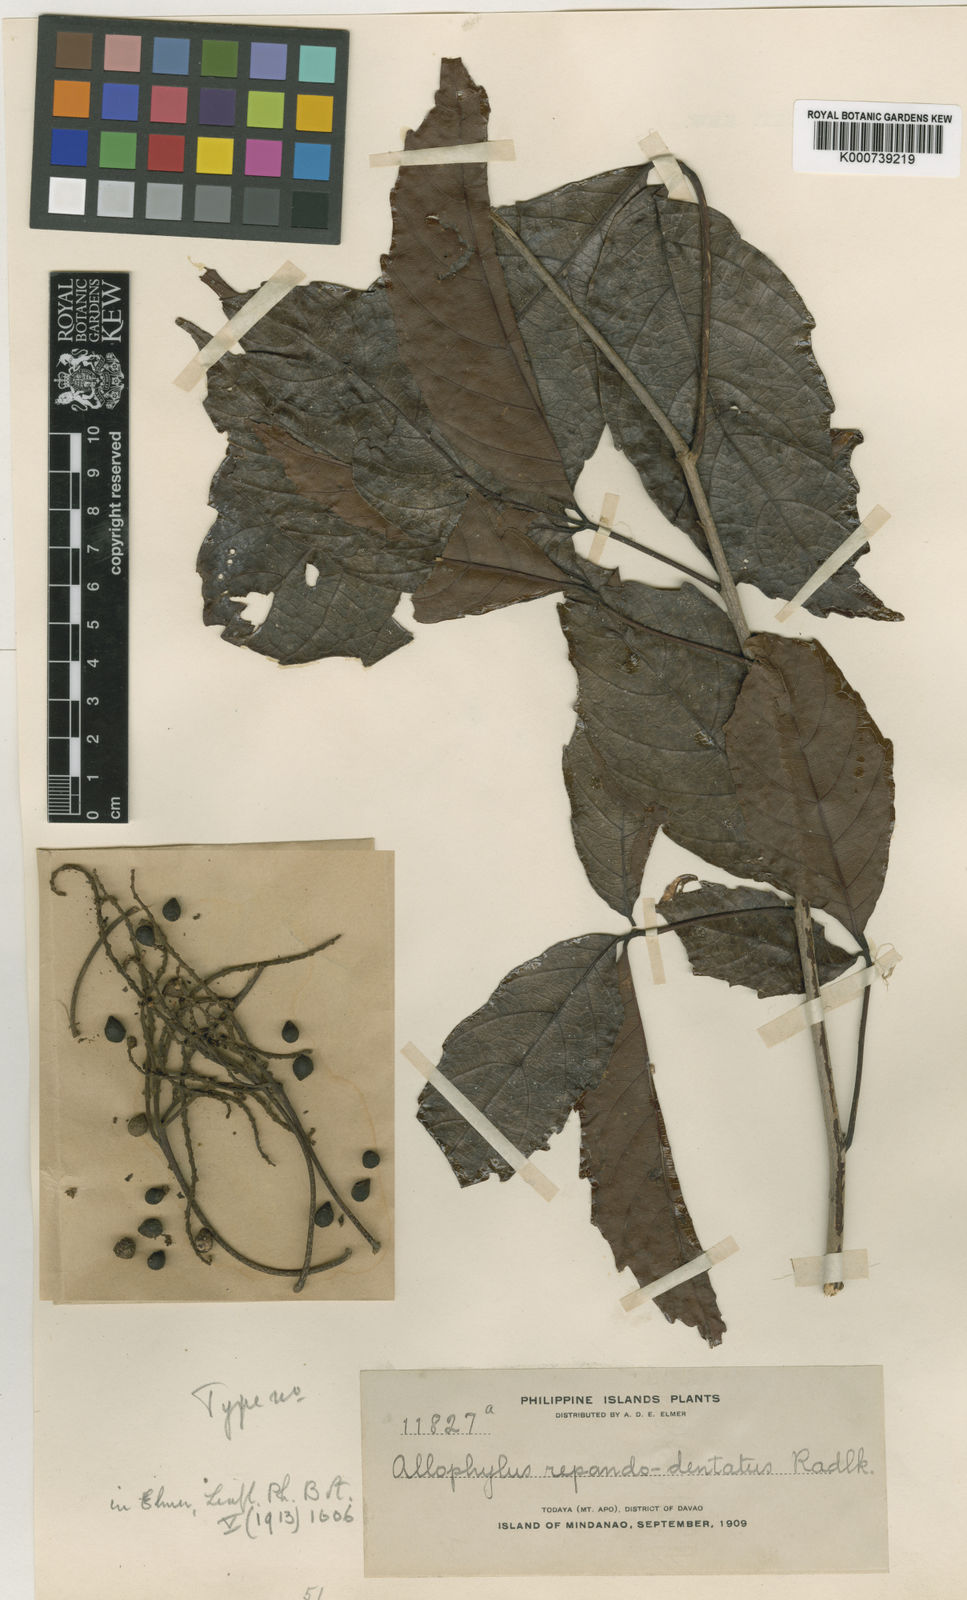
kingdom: Plantae
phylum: Tracheophyta
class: Magnoliopsida
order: Sapindales
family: Sapindaceae
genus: Allophylus
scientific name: Allophylus repandodentatus
